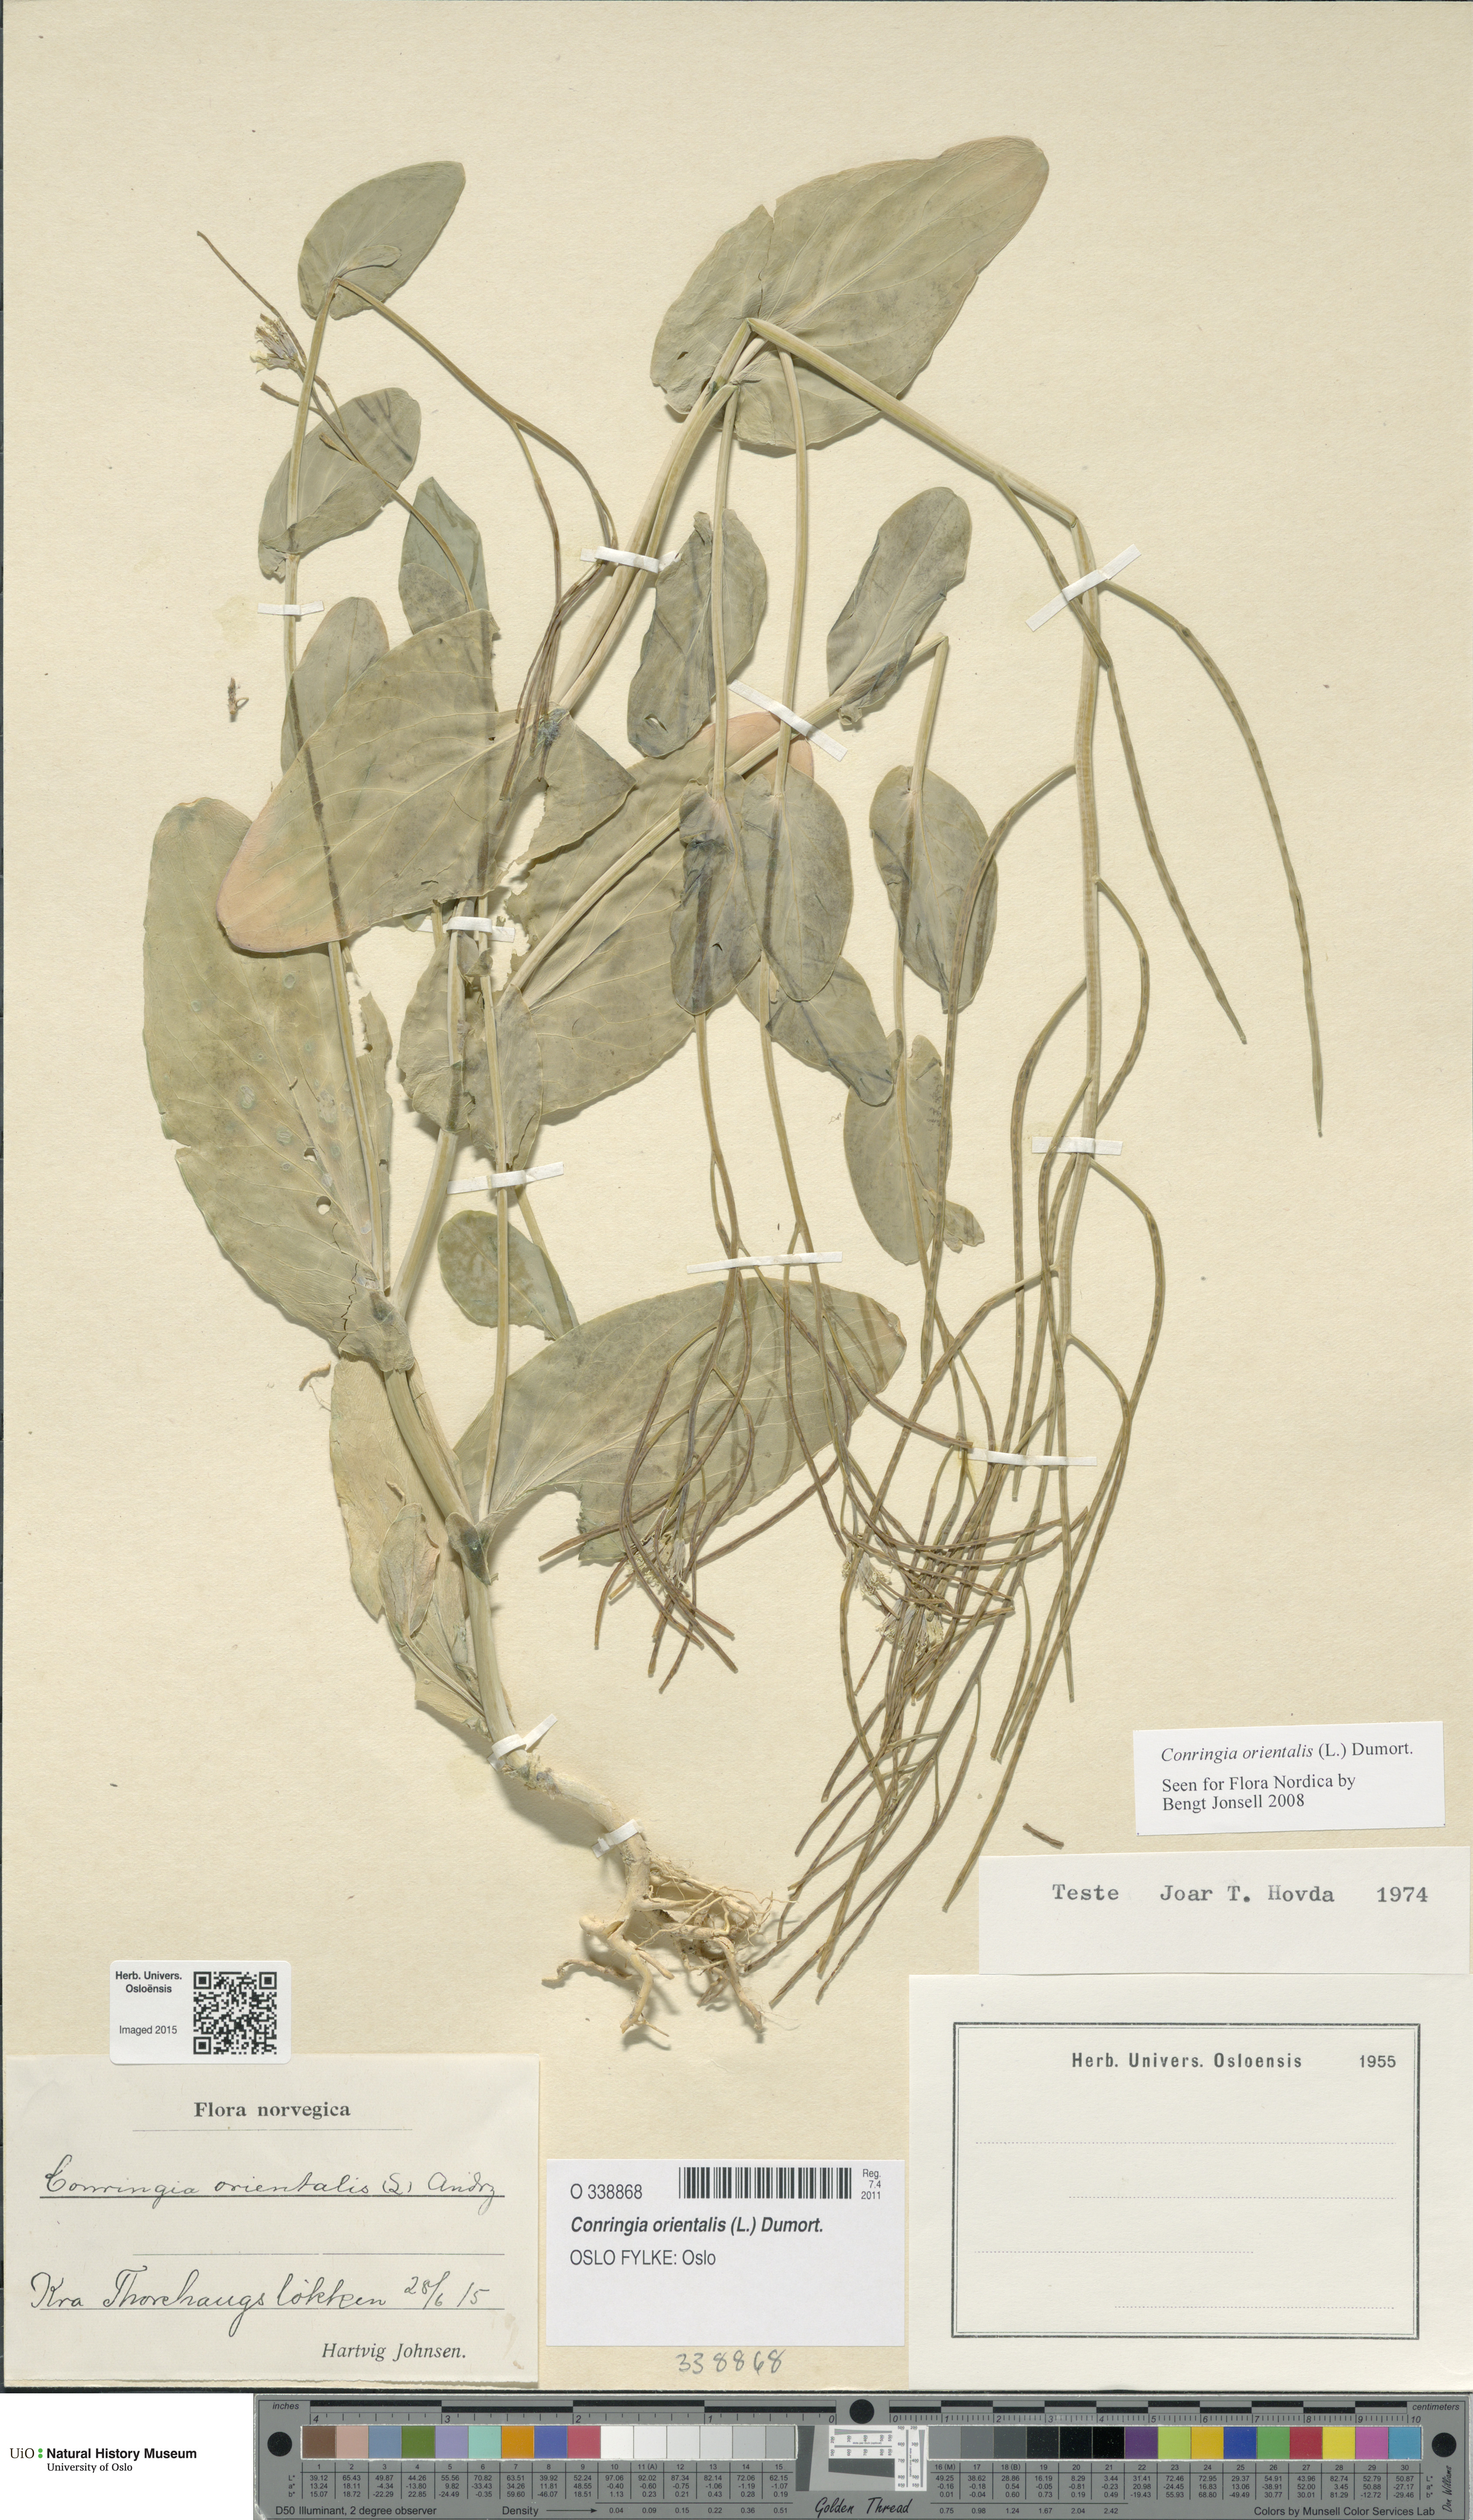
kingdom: Plantae
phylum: Tracheophyta
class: Magnoliopsida
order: Brassicales
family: Brassicaceae
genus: Conringia
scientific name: Conringia orientalis
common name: Hare's ear mustard
